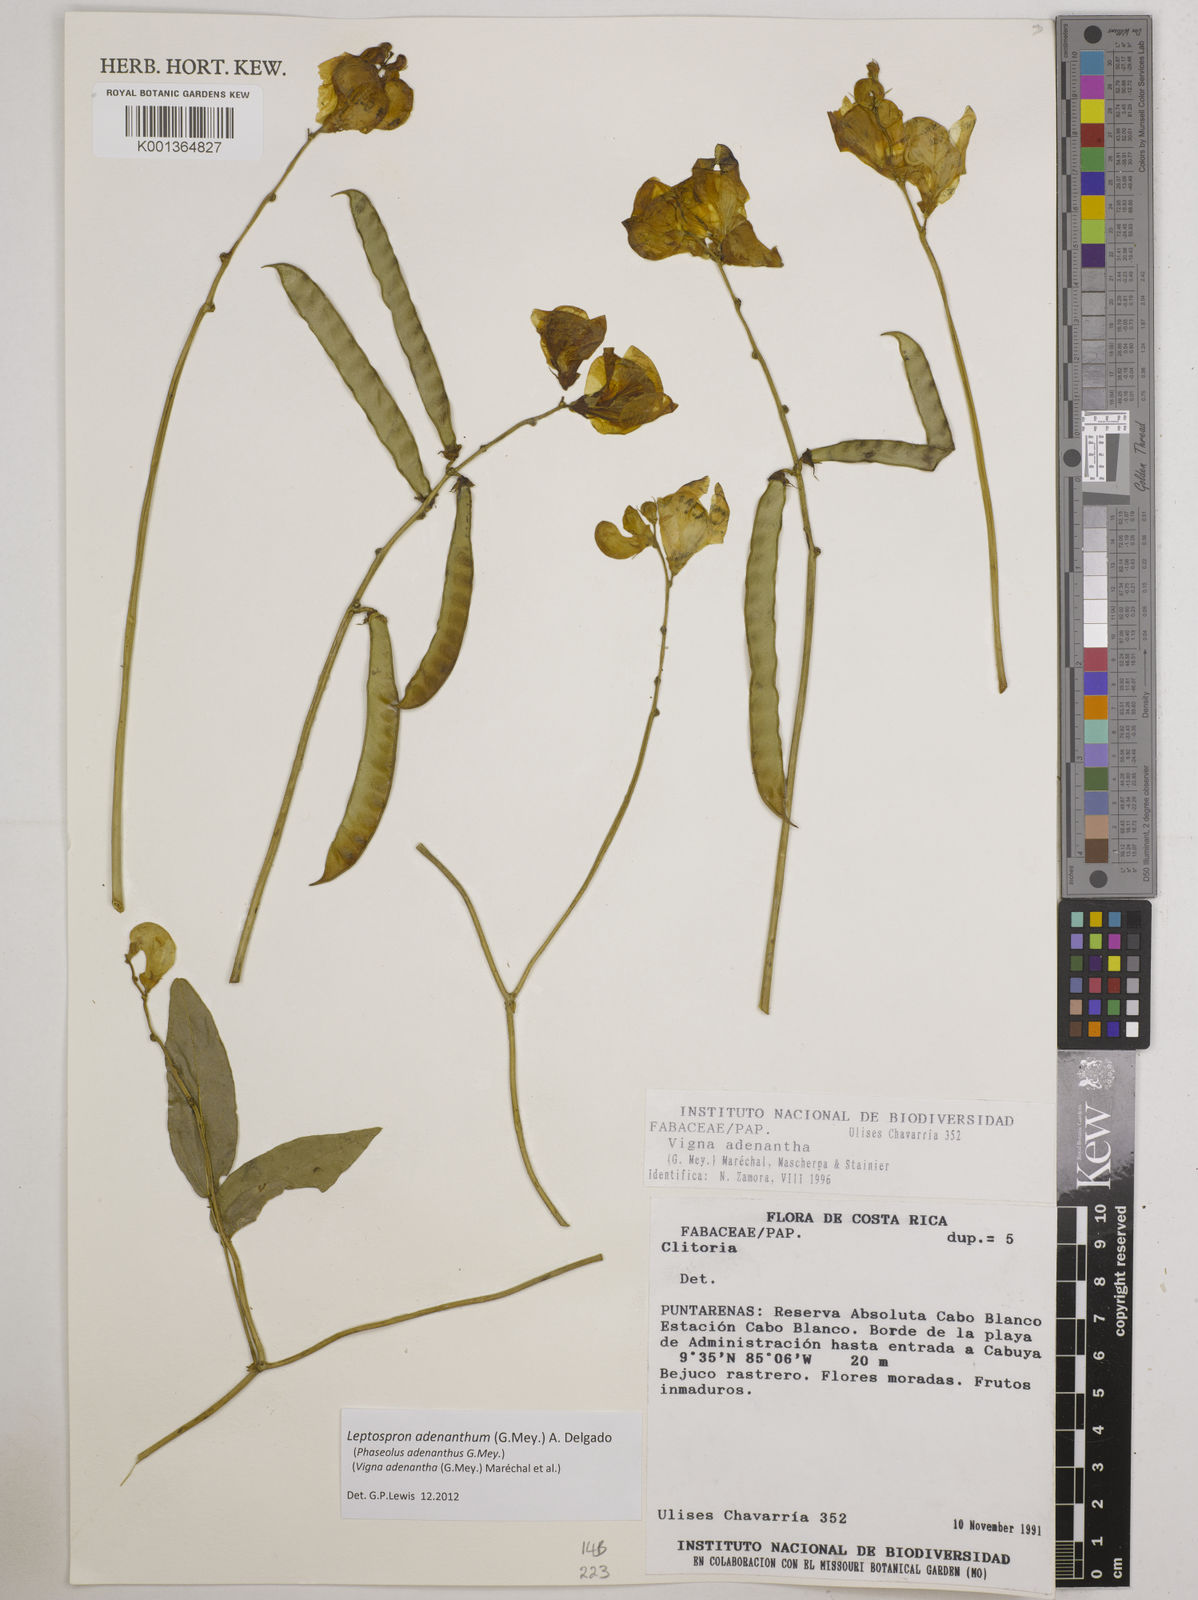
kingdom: Plantae
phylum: Tracheophyta
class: Magnoliopsida
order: Fabales
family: Fabaceae
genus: Leptospron
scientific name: Leptospron adenanthum
